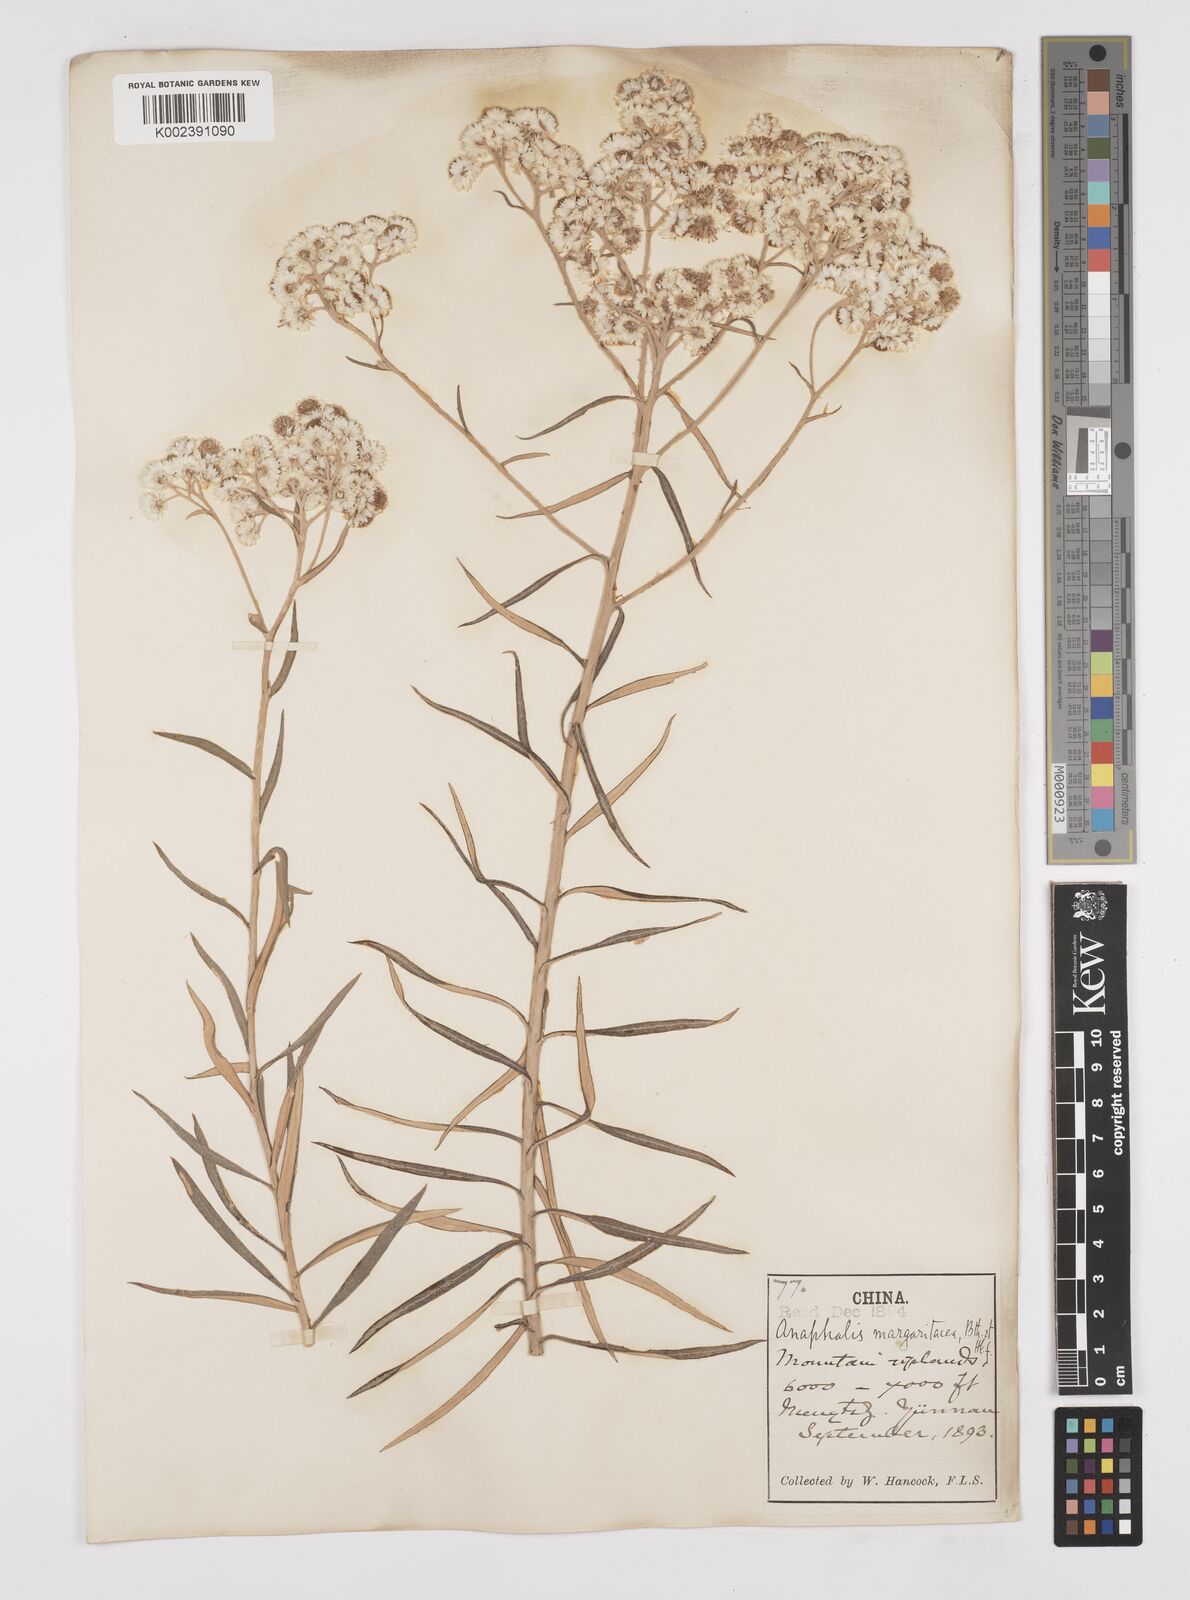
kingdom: Plantae
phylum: Tracheophyta
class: Magnoliopsida
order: Asterales
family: Asteraceae
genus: Anaphalis
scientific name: Anaphalis margaritacea
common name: Pearly everlasting
